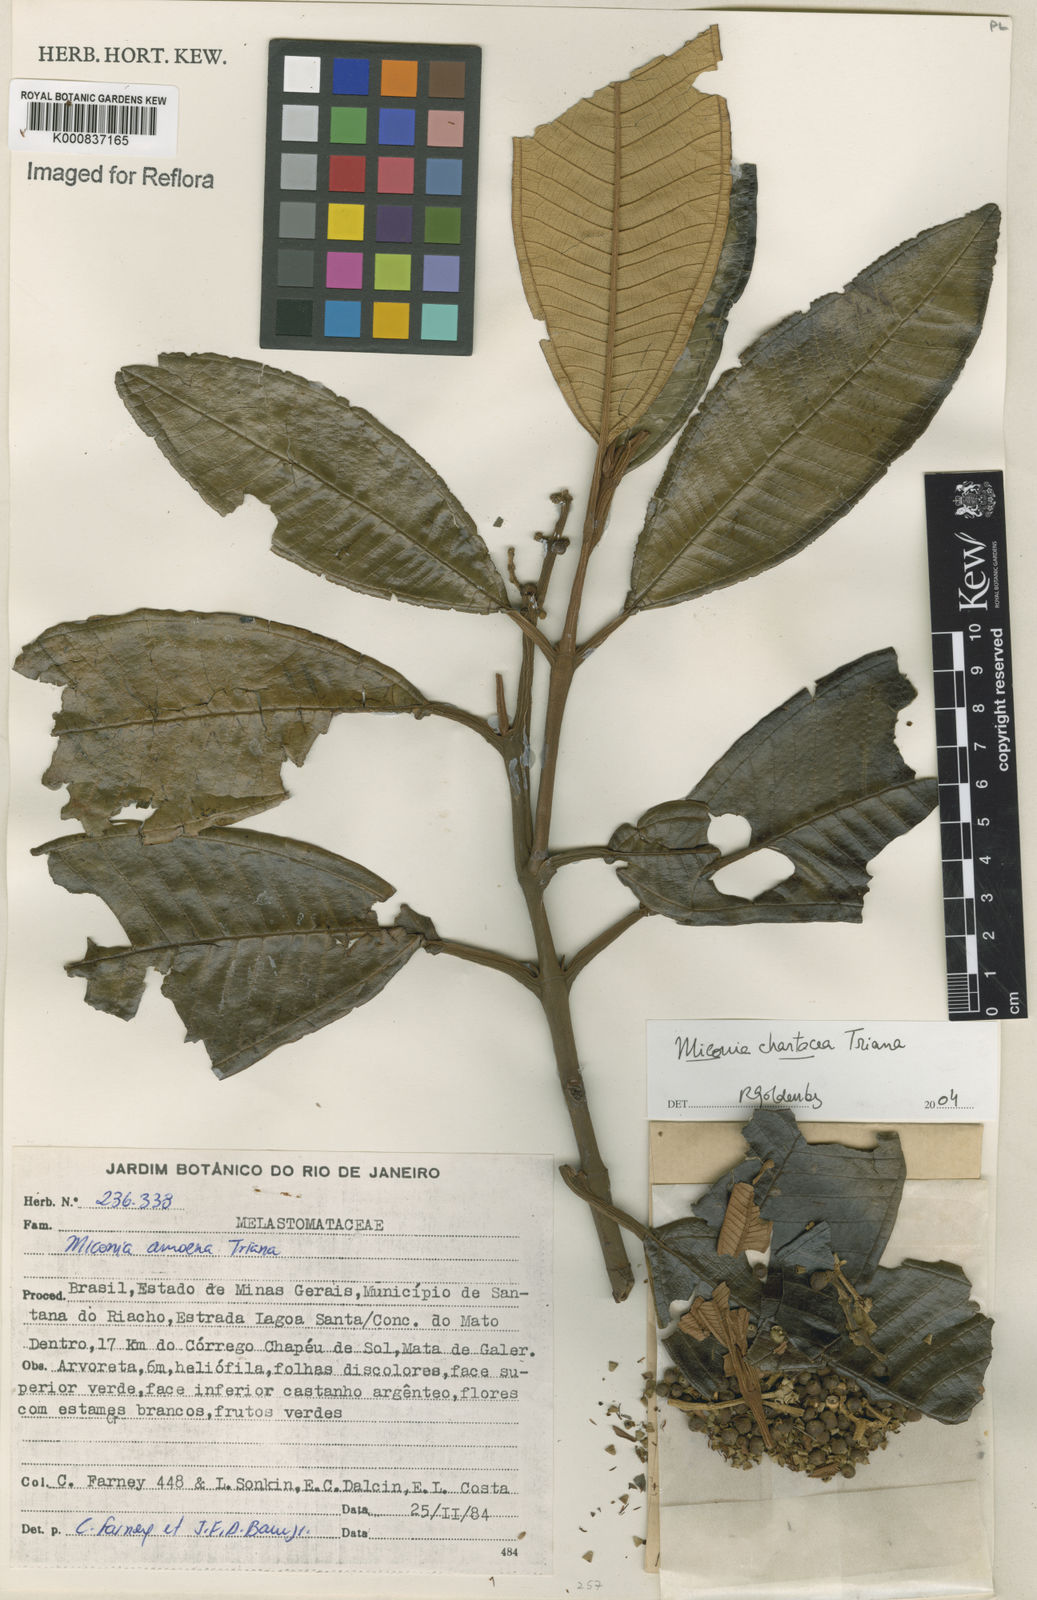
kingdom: Plantae
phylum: Tracheophyta
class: Magnoliopsida
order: Myrtales
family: Melastomataceae
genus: Miconia
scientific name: Miconia chartacea
